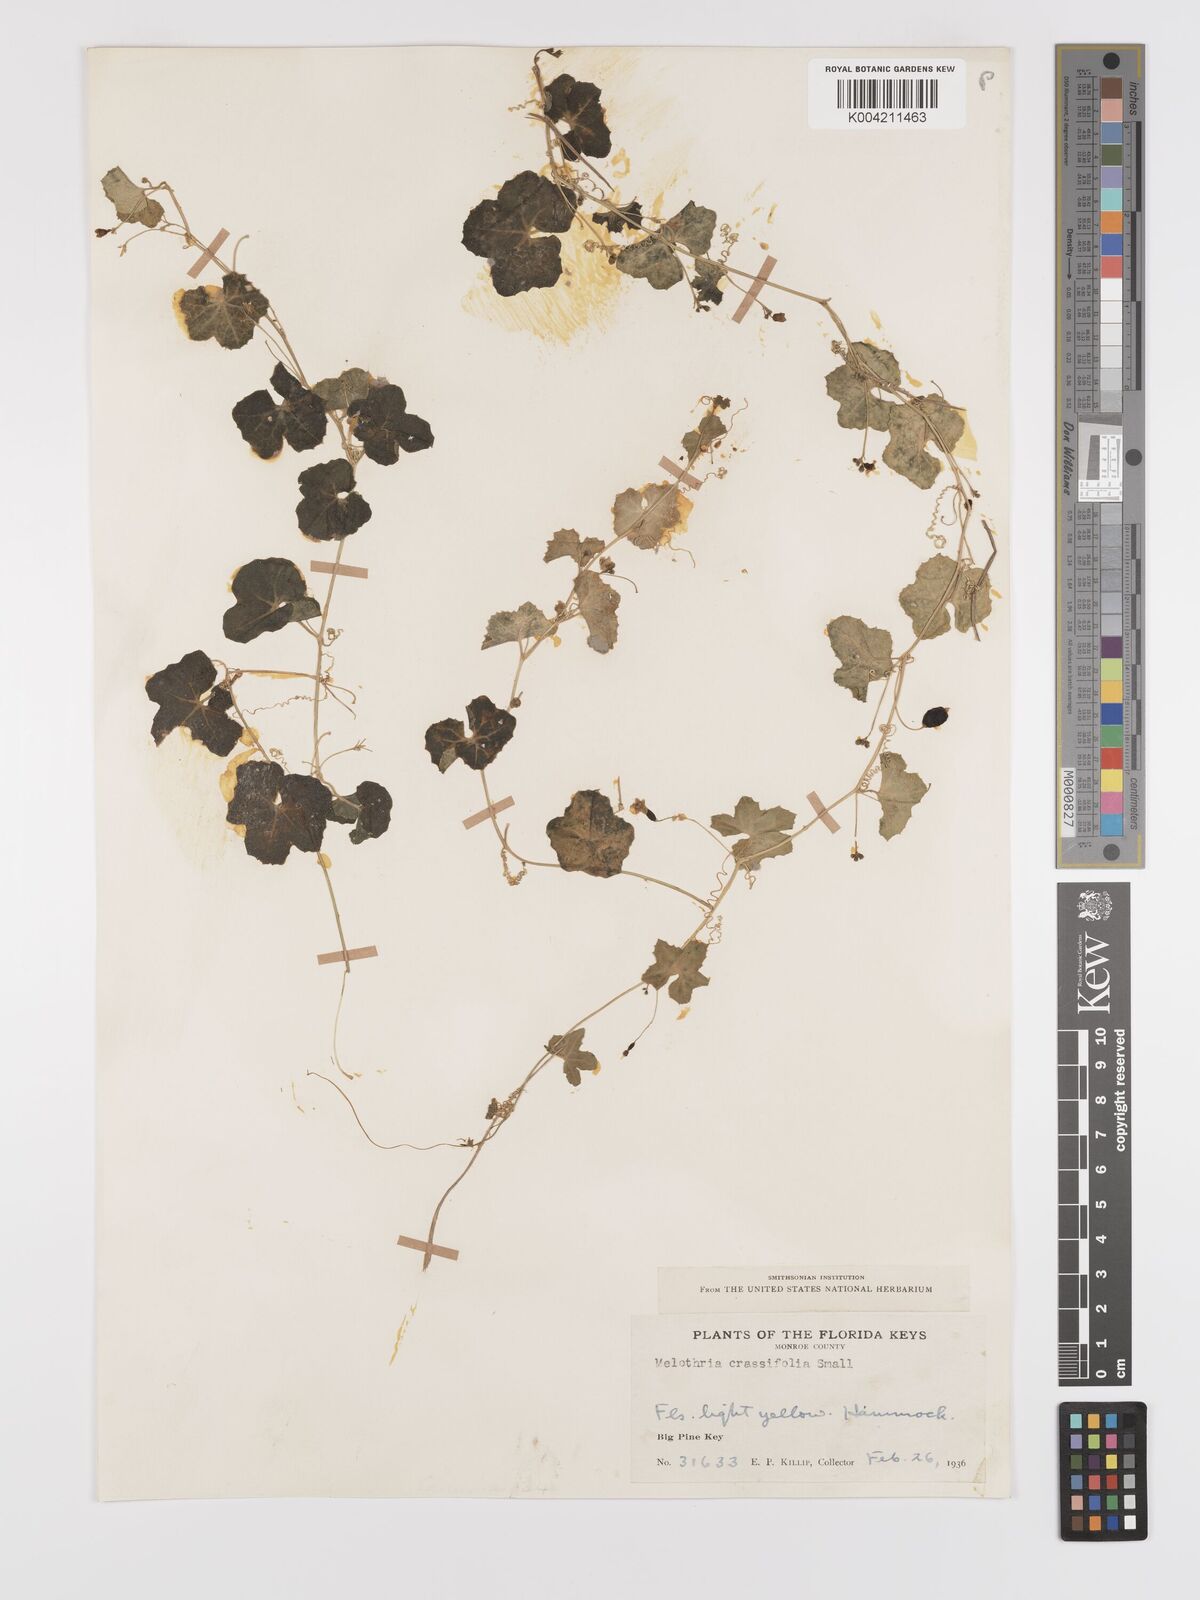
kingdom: Plantae
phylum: Tracheophyta
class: Magnoliopsida
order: Cucurbitales
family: Cucurbitaceae
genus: Melothria
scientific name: Melothria pendula
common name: Creeping-cucumber
